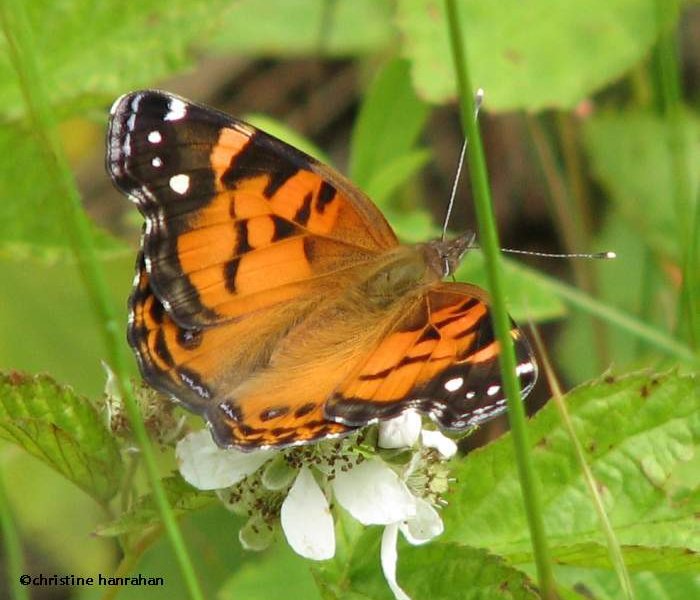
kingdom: Animalia
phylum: Arthropoda
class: Insecta
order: Lepidoptera
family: Nymphalidae
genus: Vanessa
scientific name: Vanessa virginiensis
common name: American Lady
